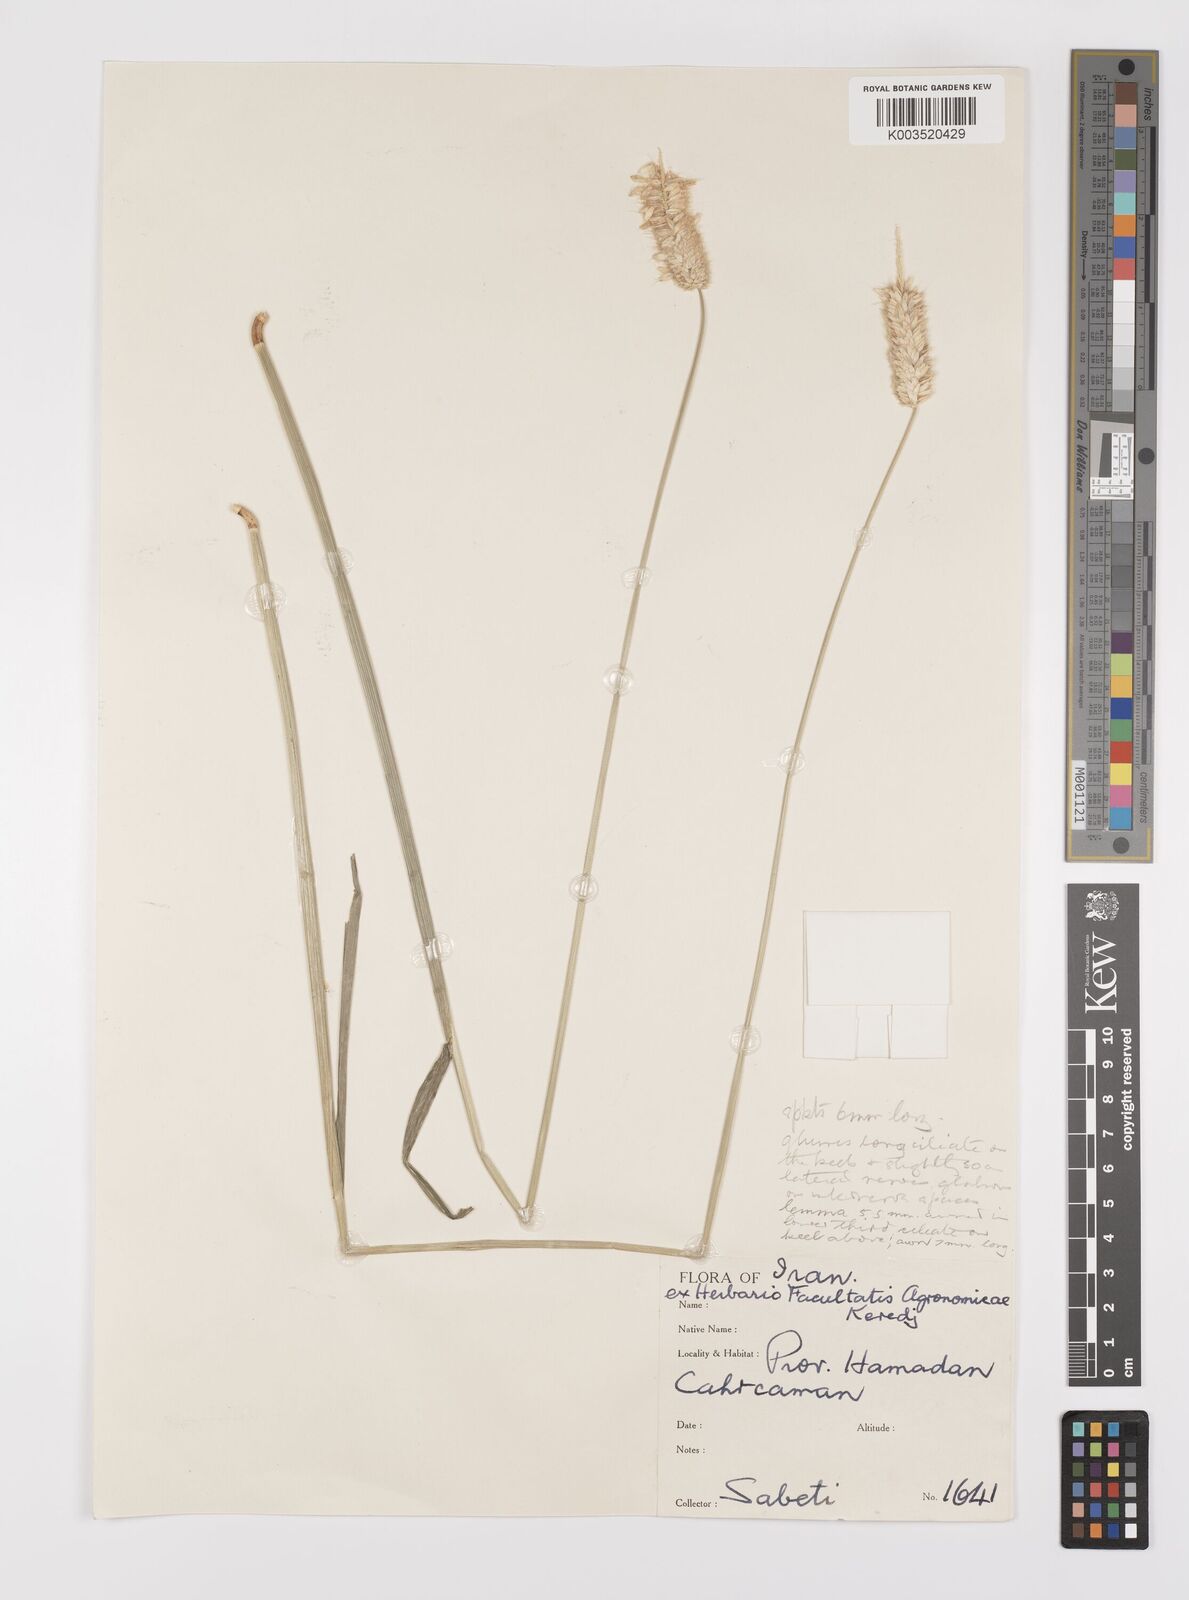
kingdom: Plantae
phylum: Tracheophyta
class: Liliopsida
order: Poales
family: Poaceae
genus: Alopecurus
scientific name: Alopecurus arundinaceus
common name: Creeping meadow foxtail
